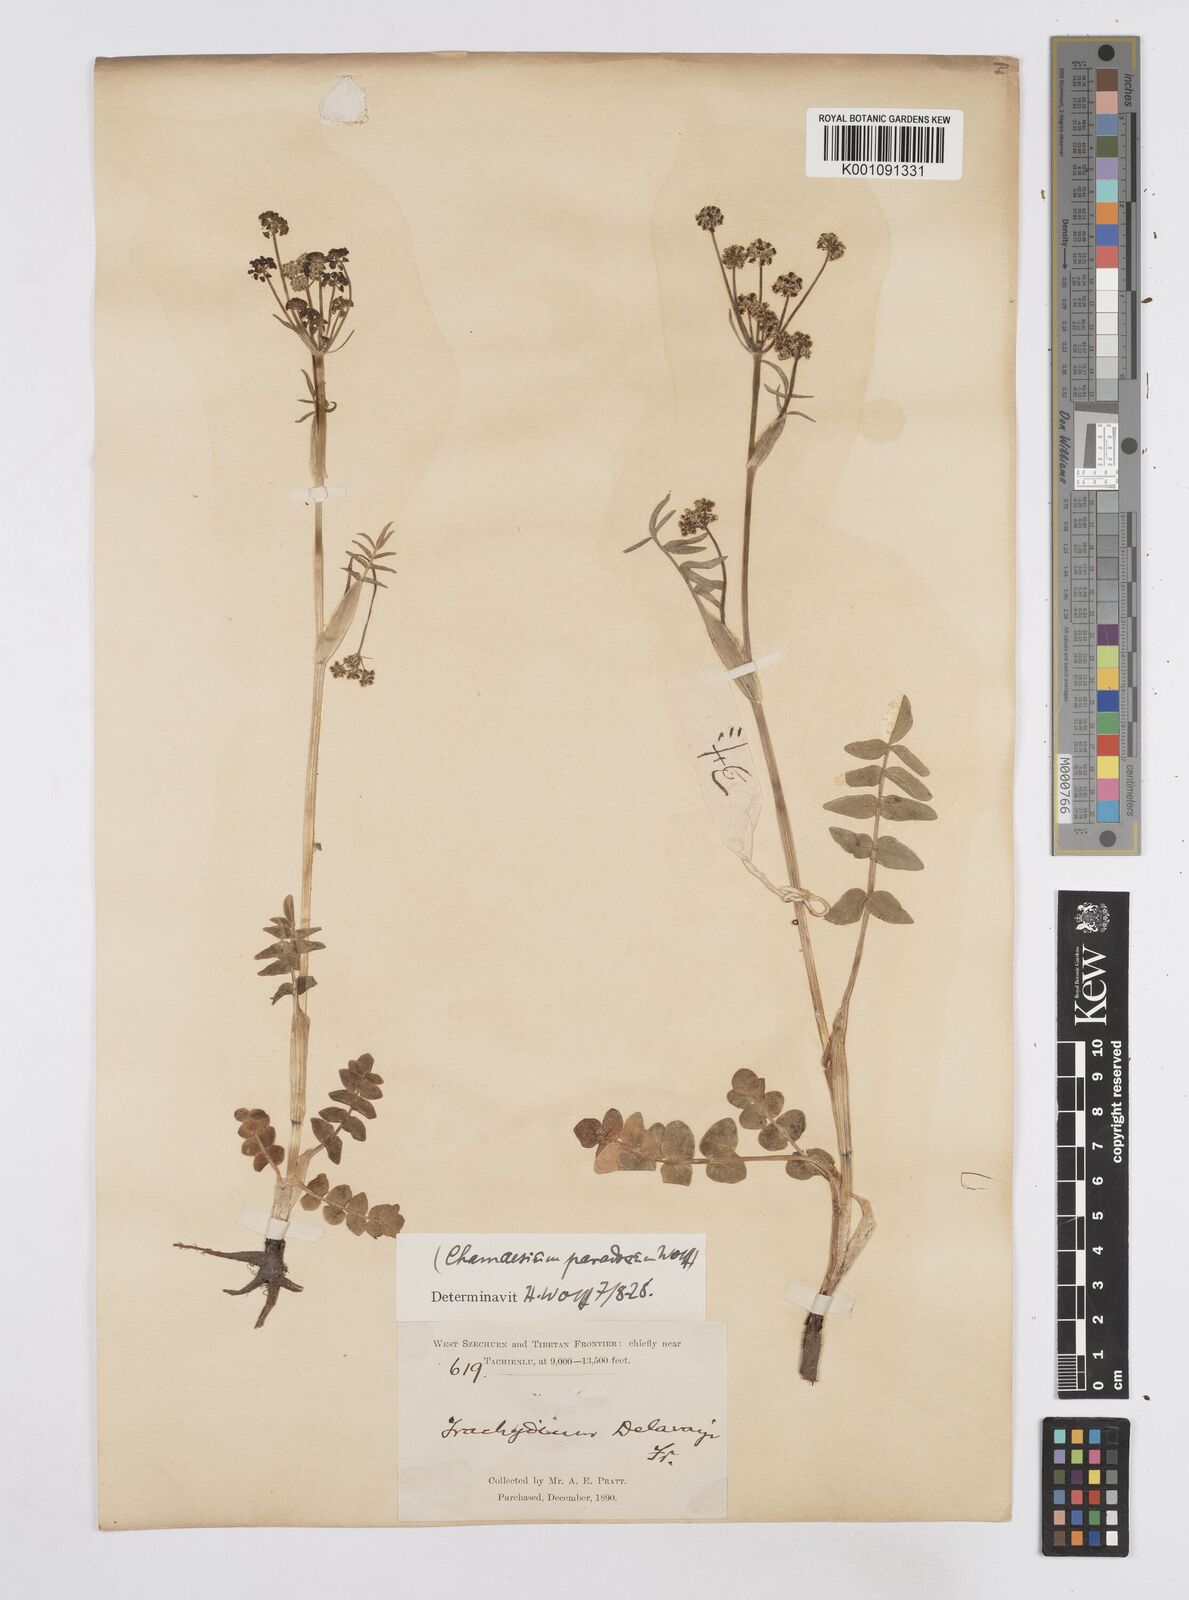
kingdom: Plantae
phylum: Tracheophyta
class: Magnoliopsida
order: Apiales
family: Apiaceae
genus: Chamaesium
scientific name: Chamaesium paradoxum
